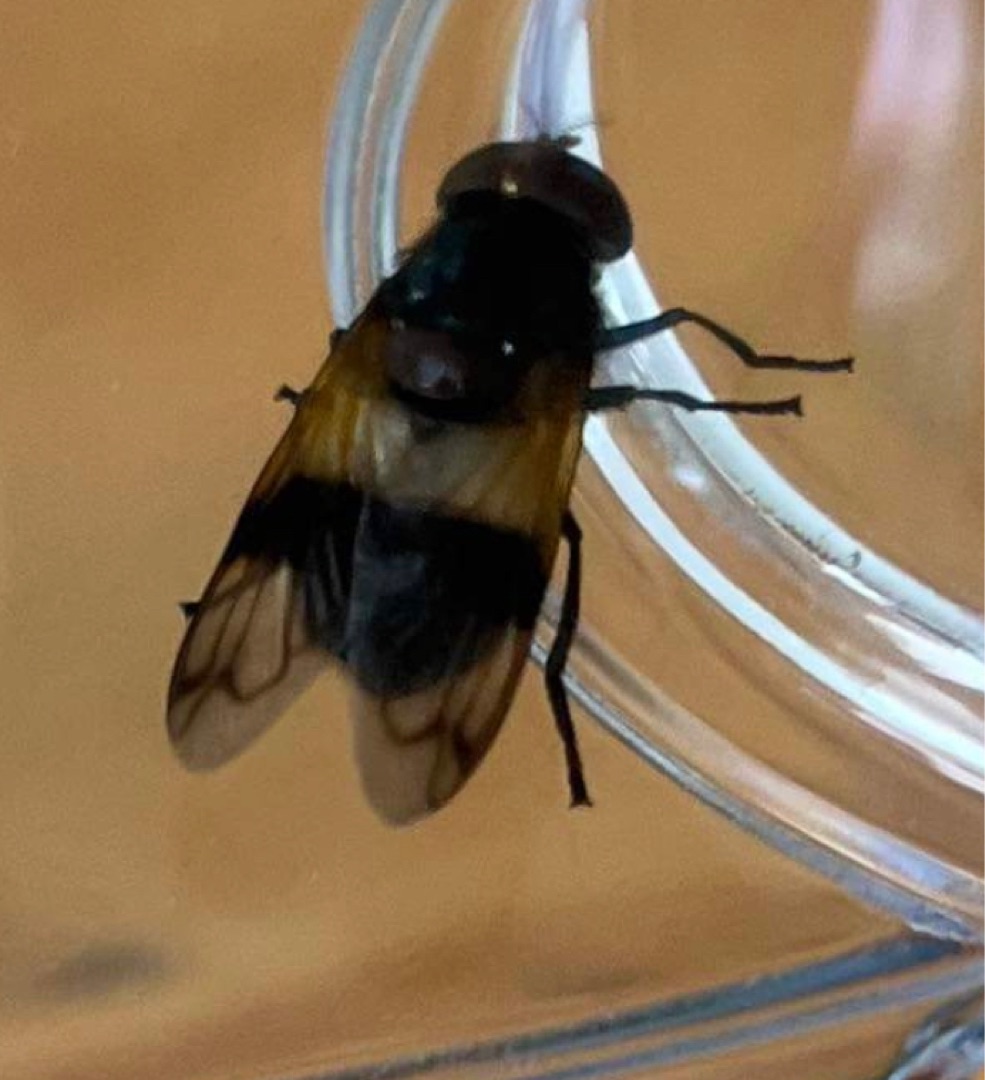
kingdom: Animalia
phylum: Arthropoda
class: Insecta
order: Diptera
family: Syrphidae
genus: Volucella
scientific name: Volucella pellucens
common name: Hvidbåndet humlesvirreflue
